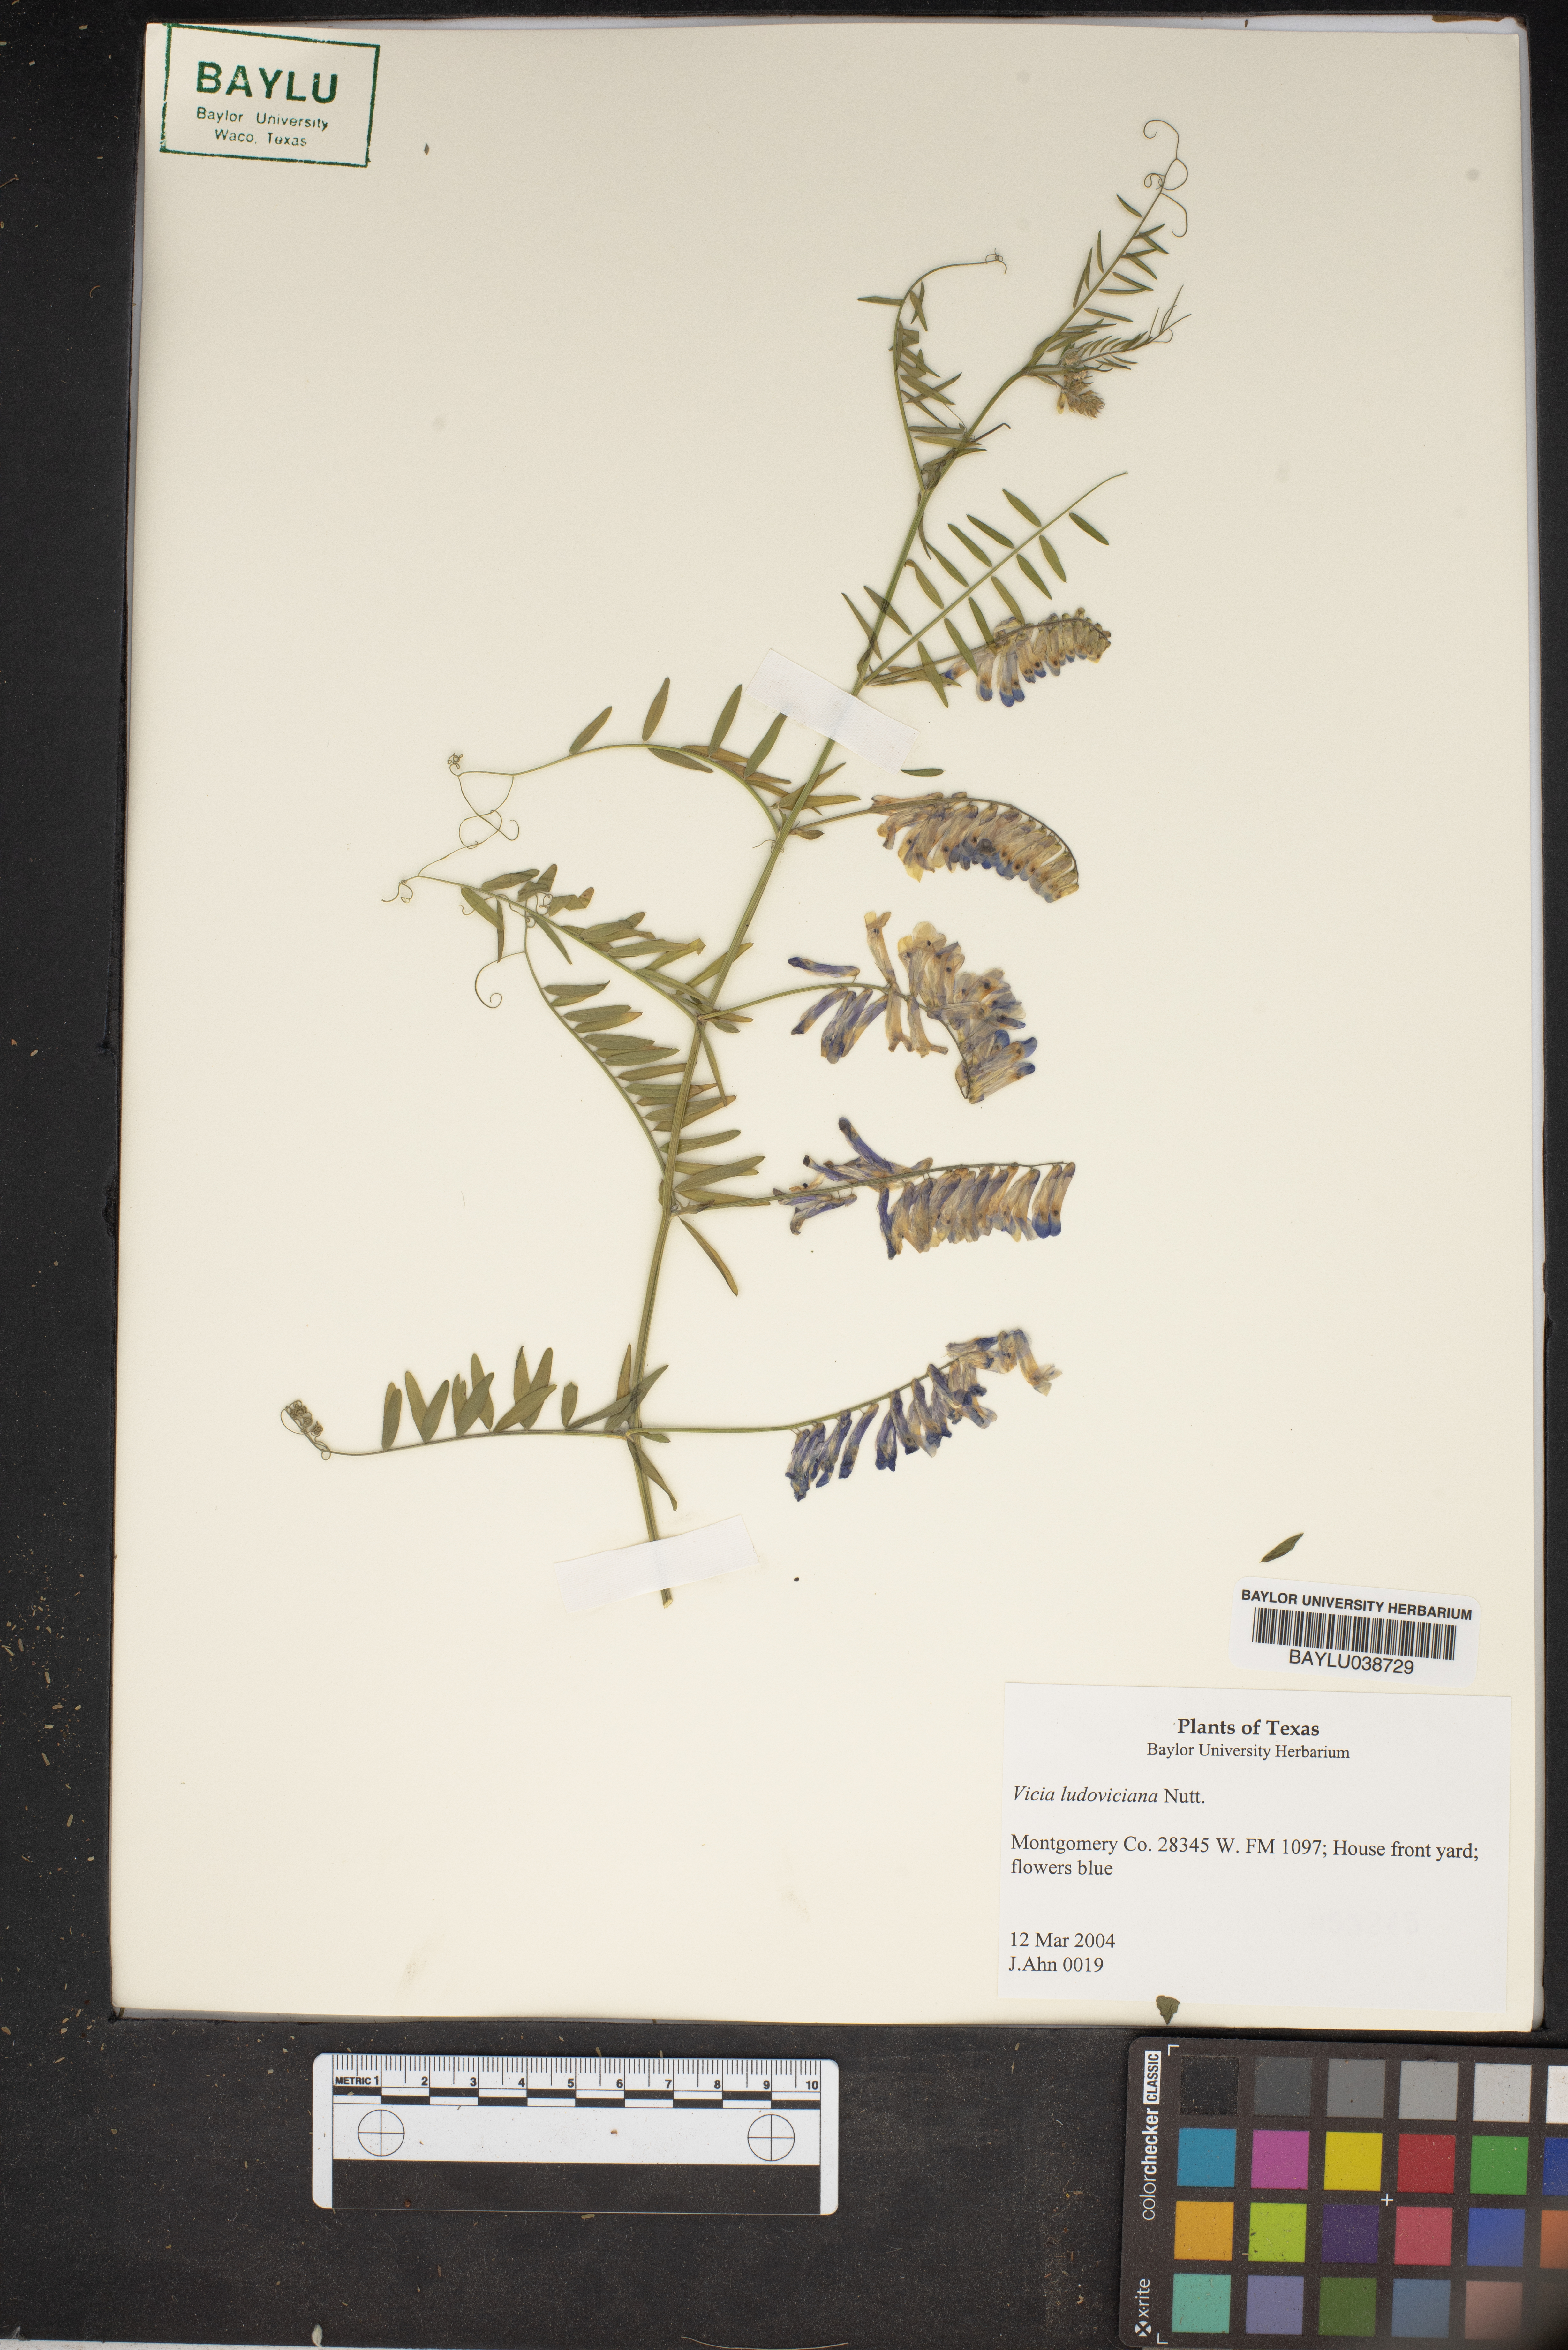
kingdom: Plantae
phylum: Tracheophyta
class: Magnoliopsida
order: Fabales
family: Fabaceae
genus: Vicia
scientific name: Vicia ludoviciana
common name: Louisiana vetch
